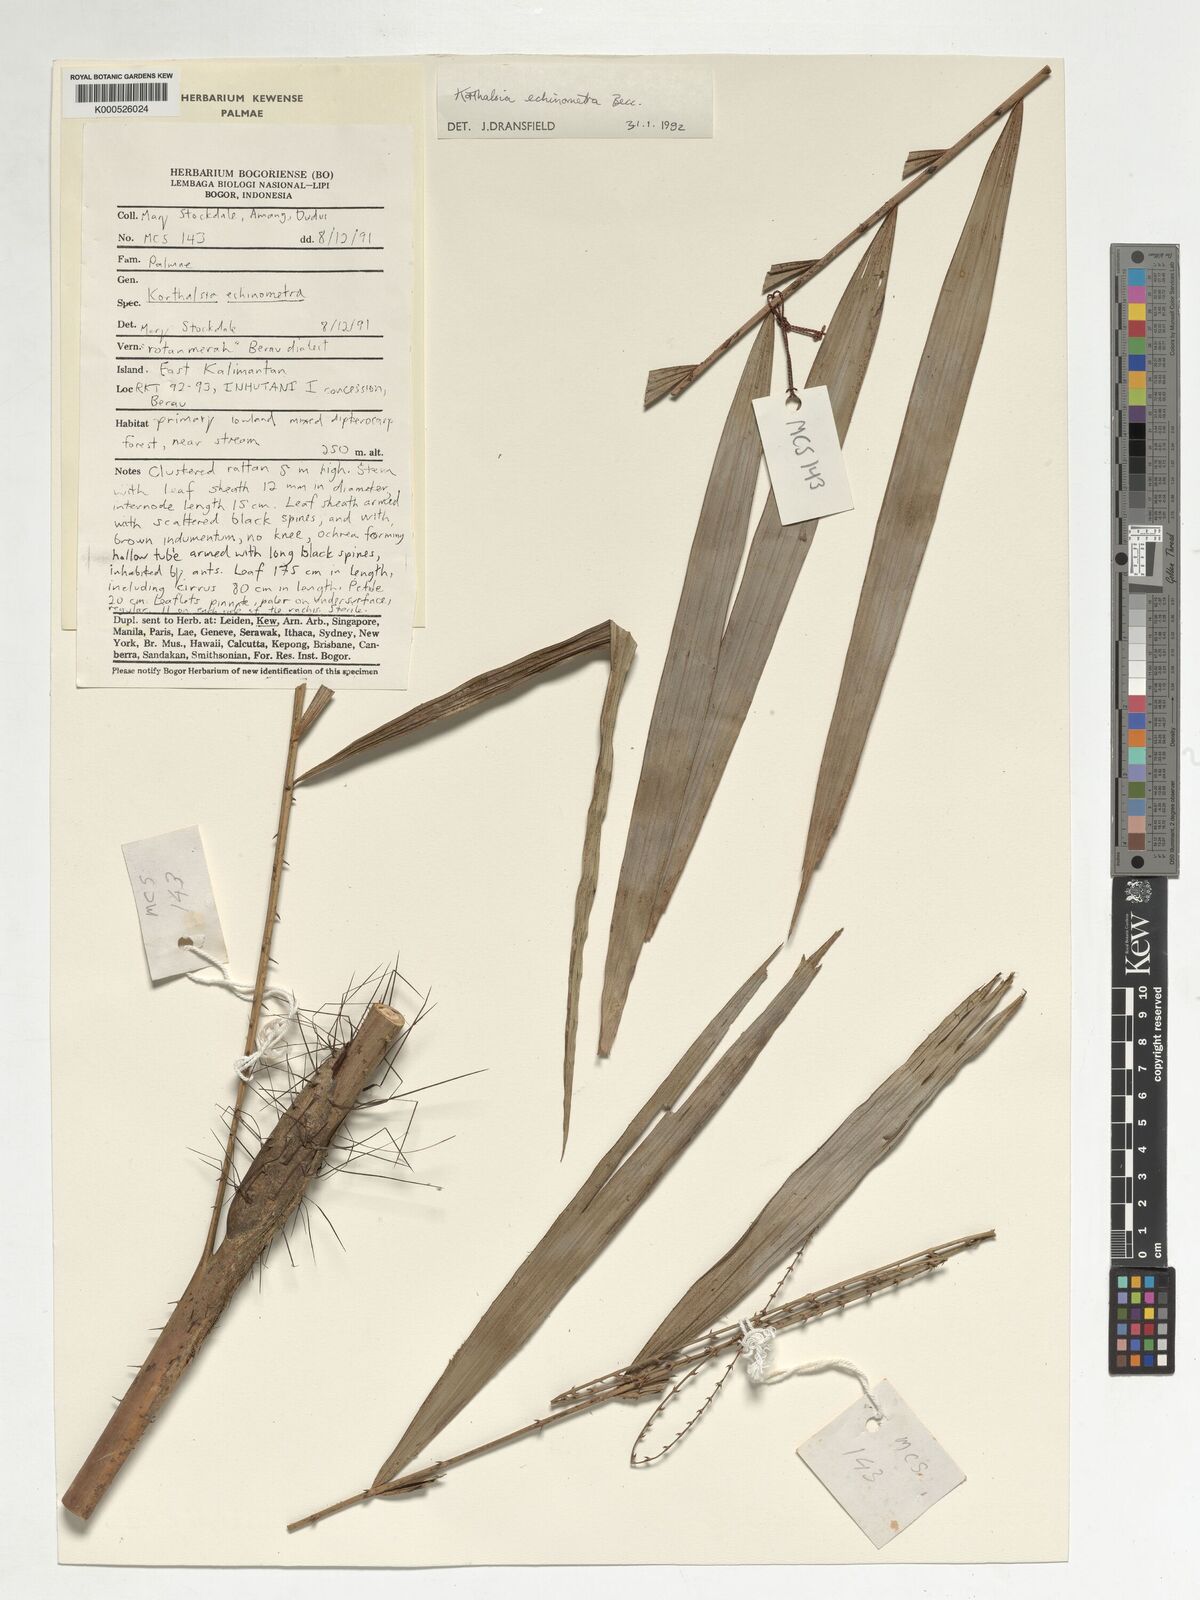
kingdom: Plantae
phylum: Tracheophyta
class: Liliopsida
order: Arecales
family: Arecaceae
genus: Korthalsia
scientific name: Korthalsia echinometra
